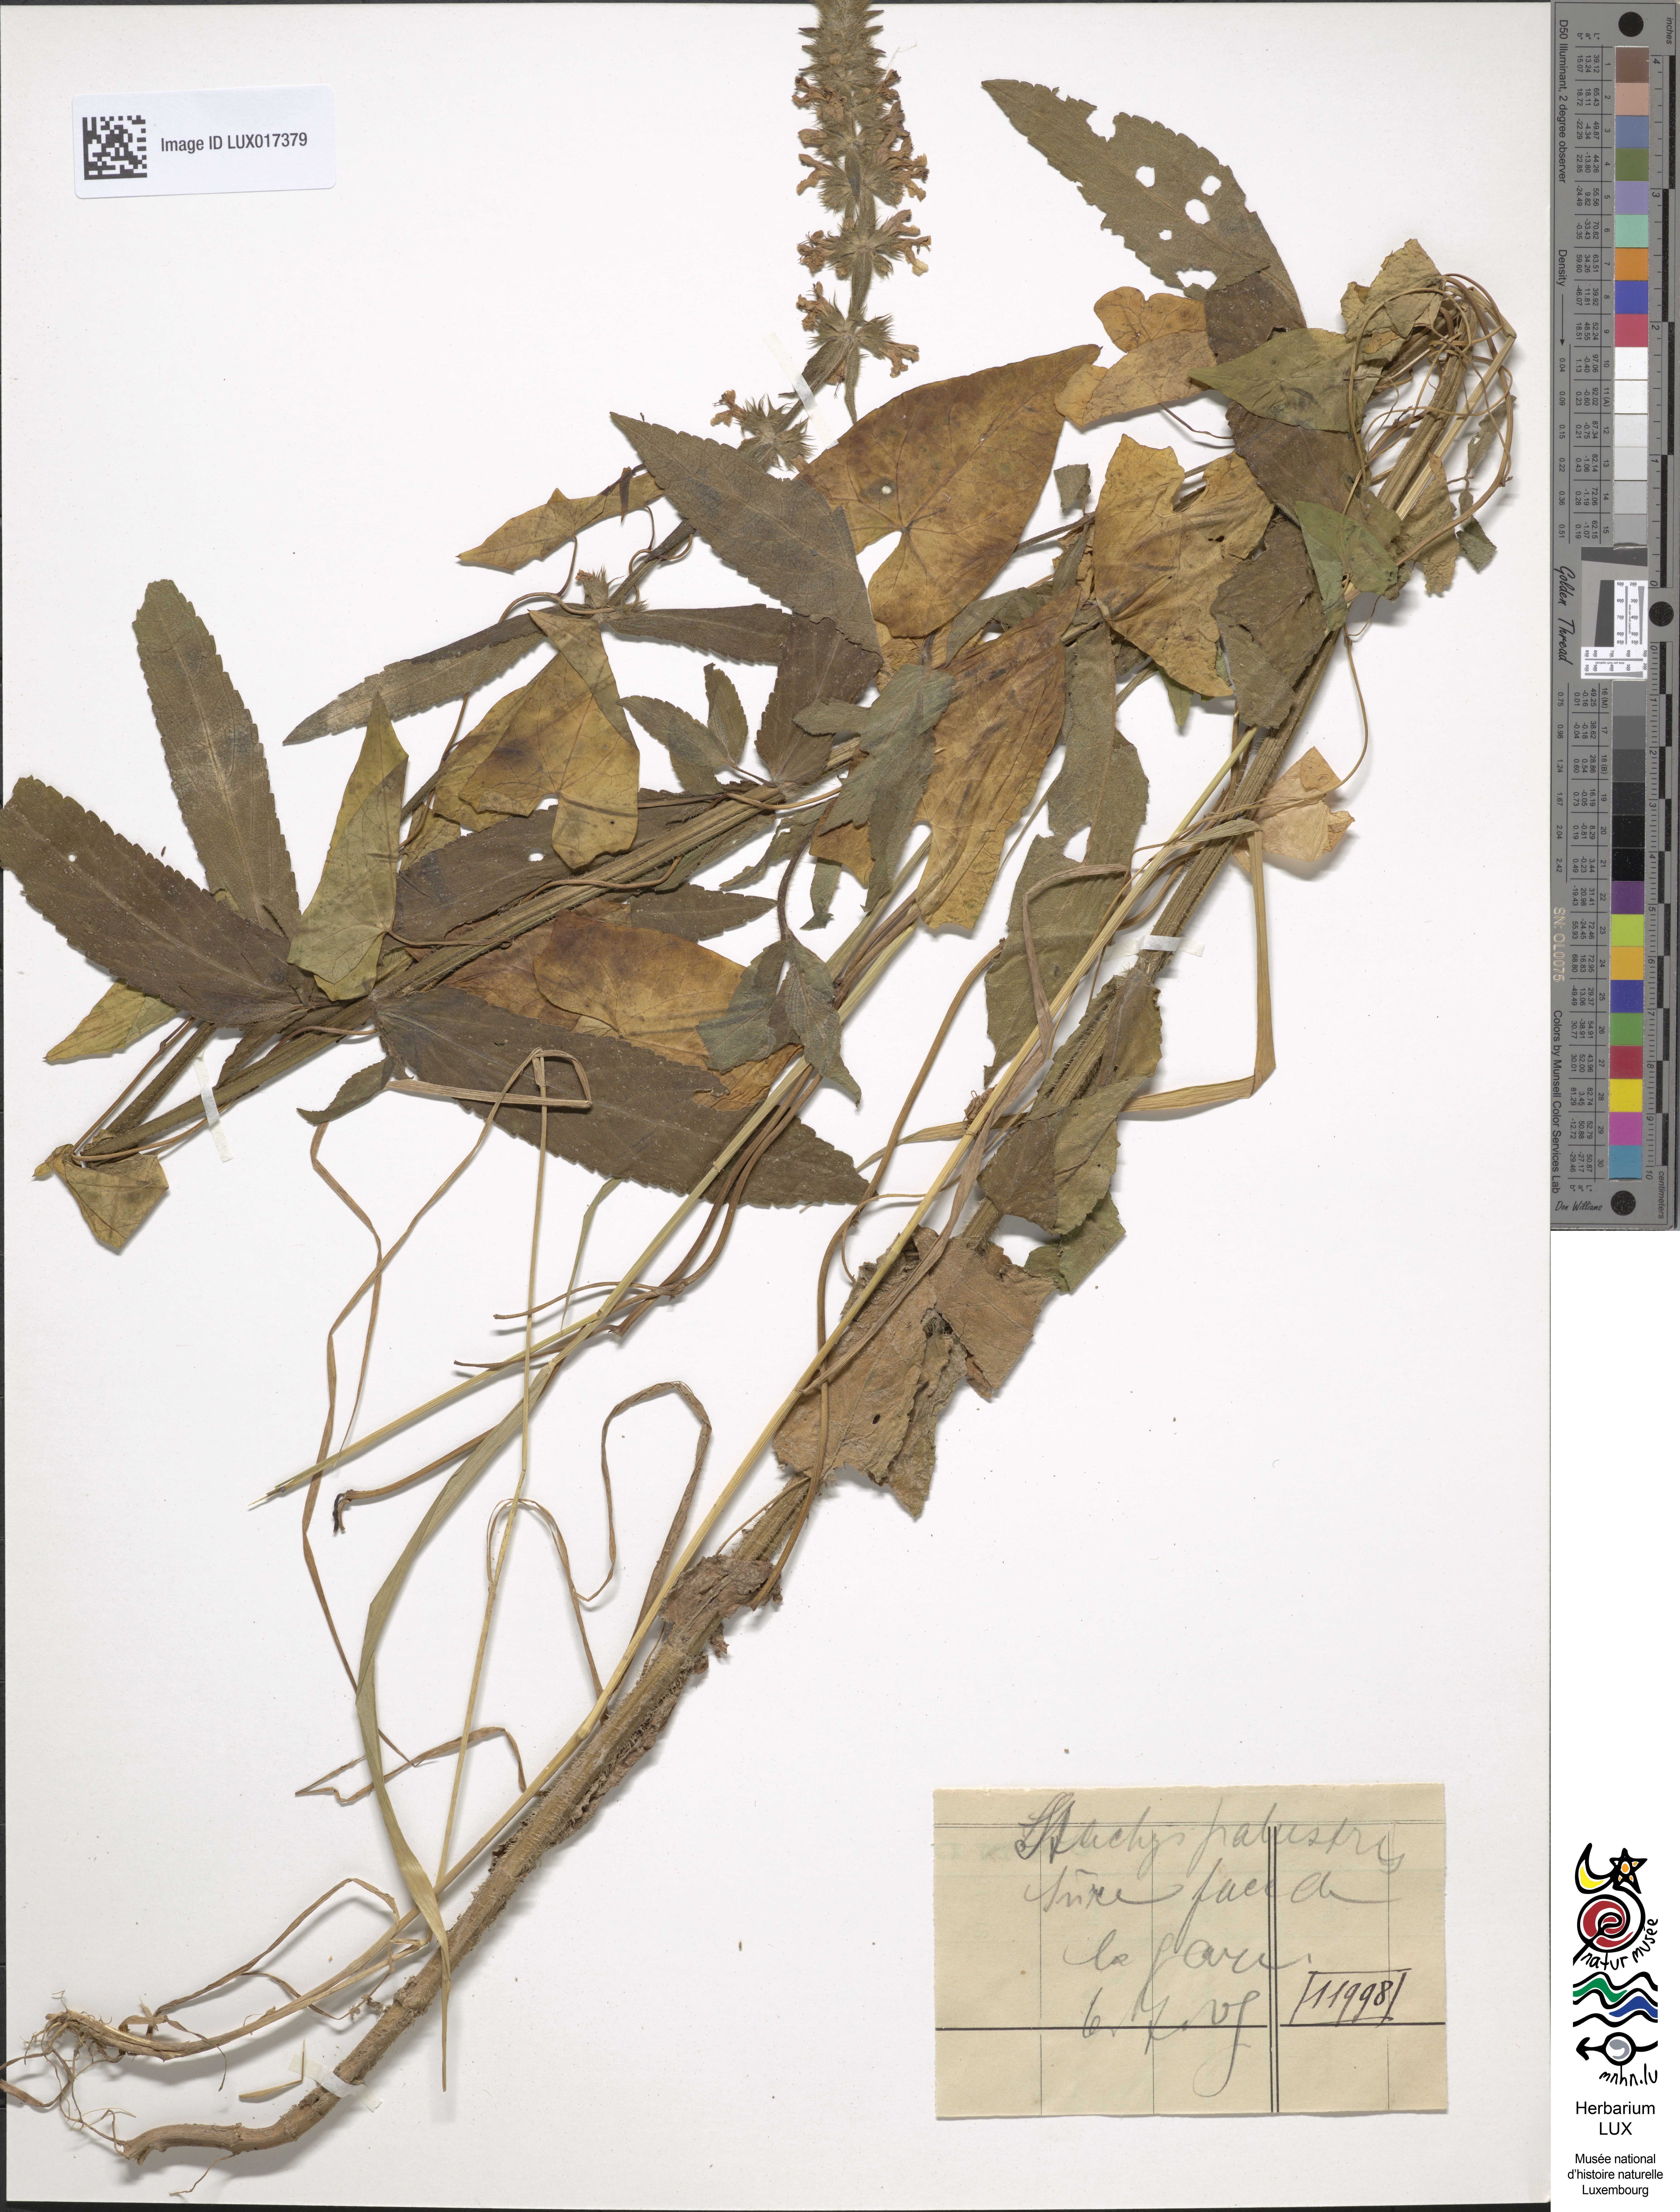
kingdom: Plantae
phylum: Tracheophyta
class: Magnoliopsida
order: Lamiales
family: Lamiaceae
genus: Stachys
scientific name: Stachys palustris
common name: Marsh woundwort
